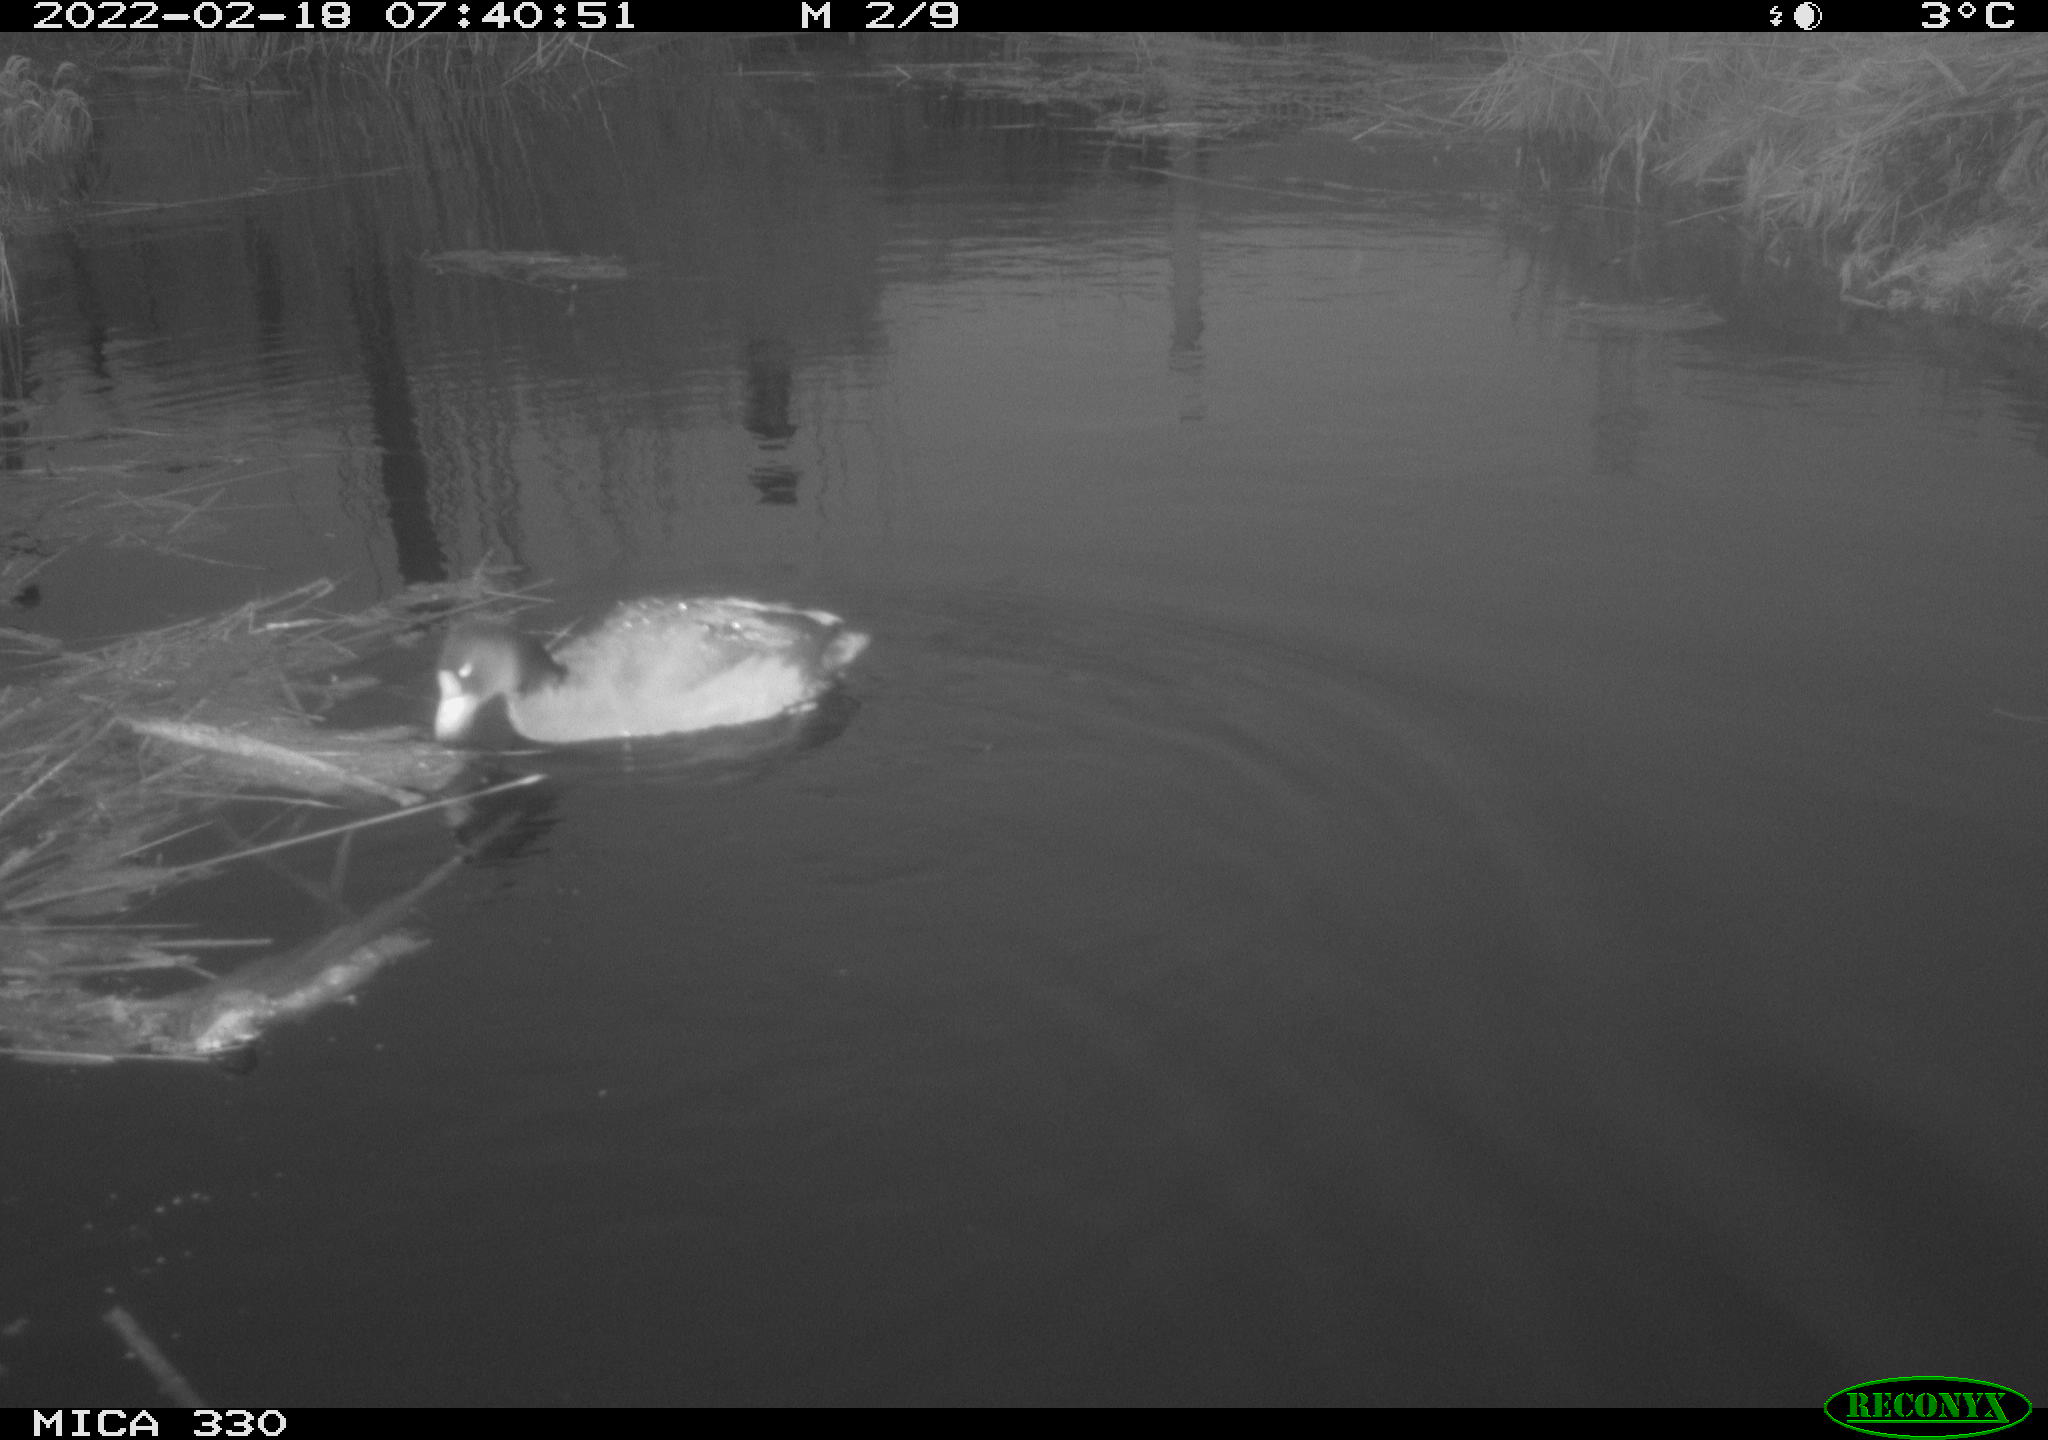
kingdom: Animalia
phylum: Chordata
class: Aves
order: Gruiformes
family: Rallidae
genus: Fulica
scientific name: Fulica atra
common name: Eurasian coot
